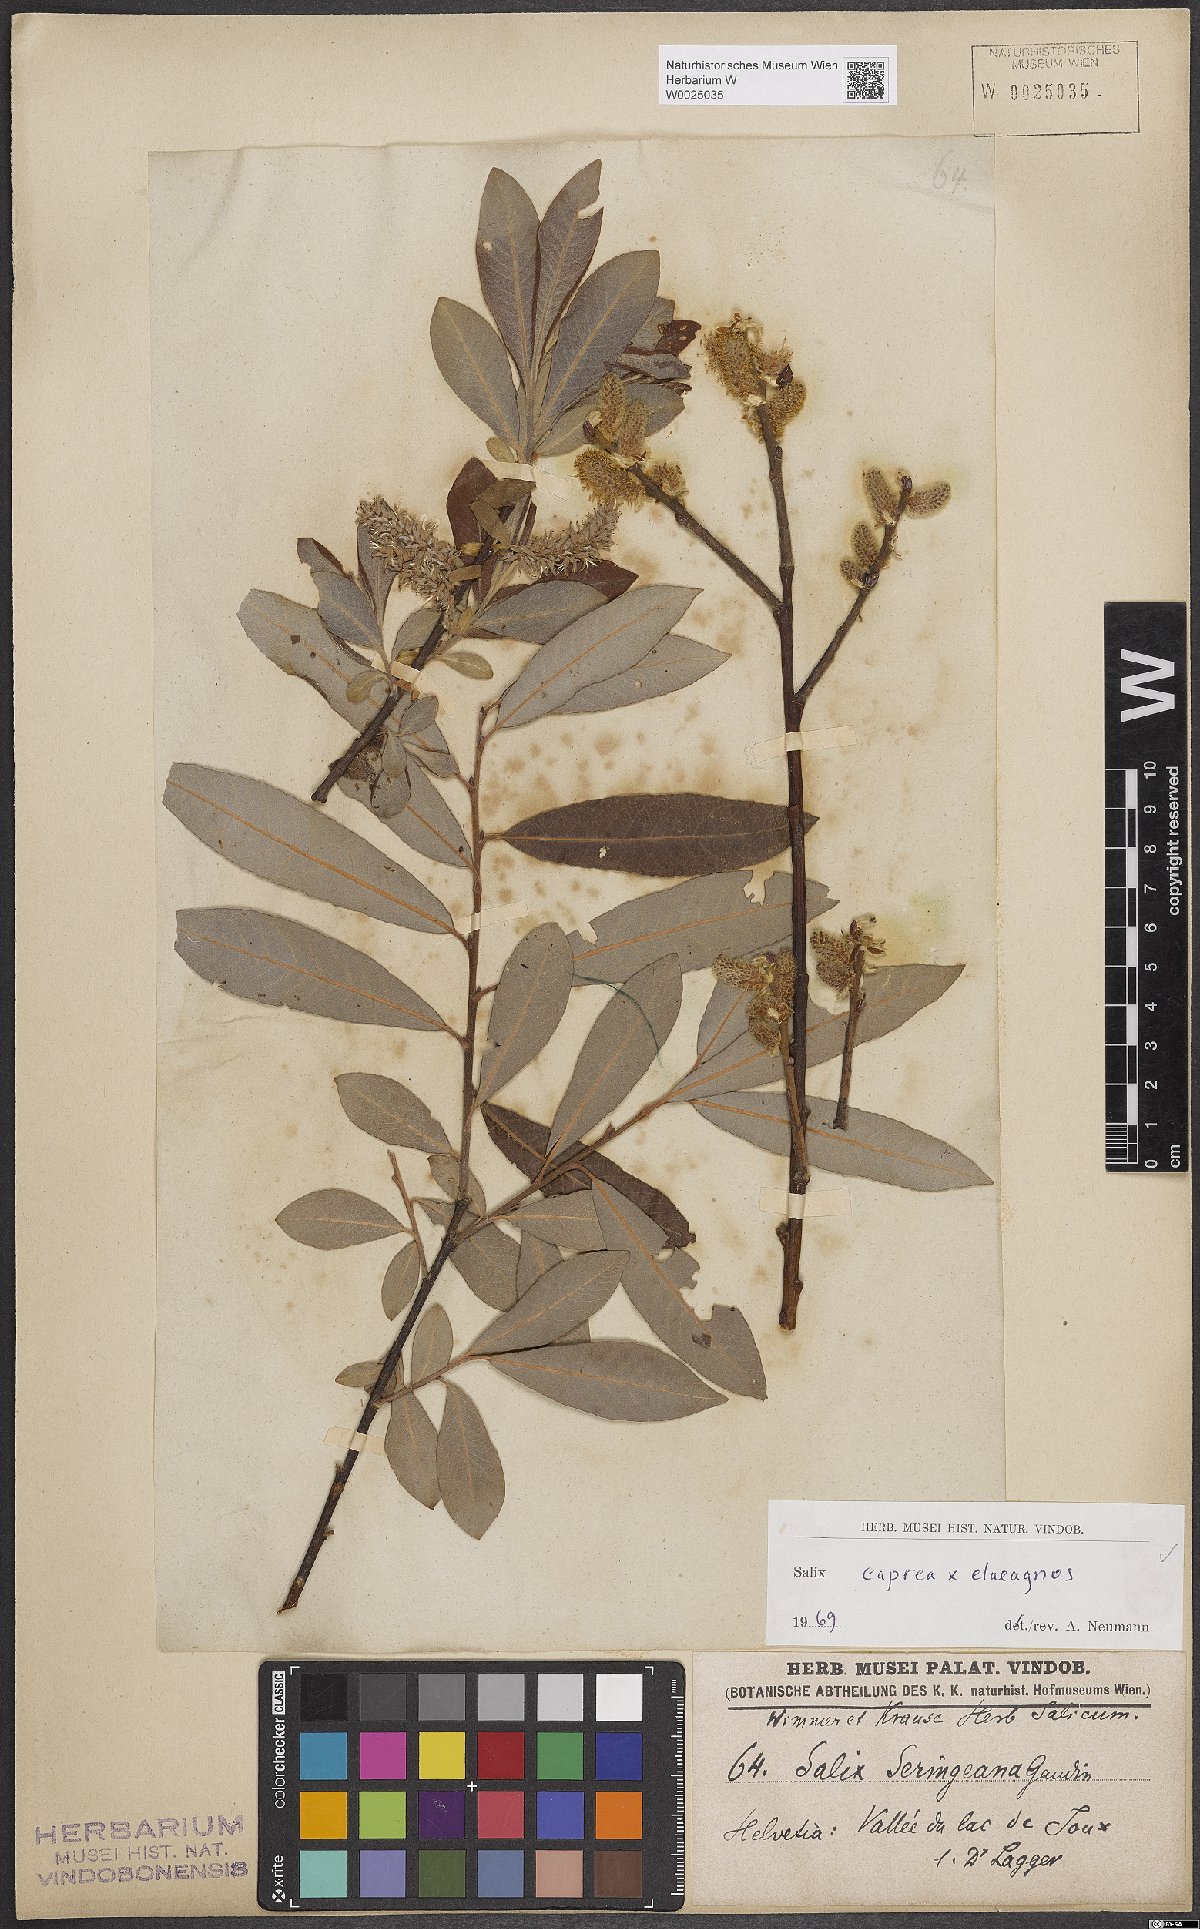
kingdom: Plantae
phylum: Tracheophyta
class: Magnoliopsida
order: Malpighiales
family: Salicaceae
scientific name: Salicaceae
